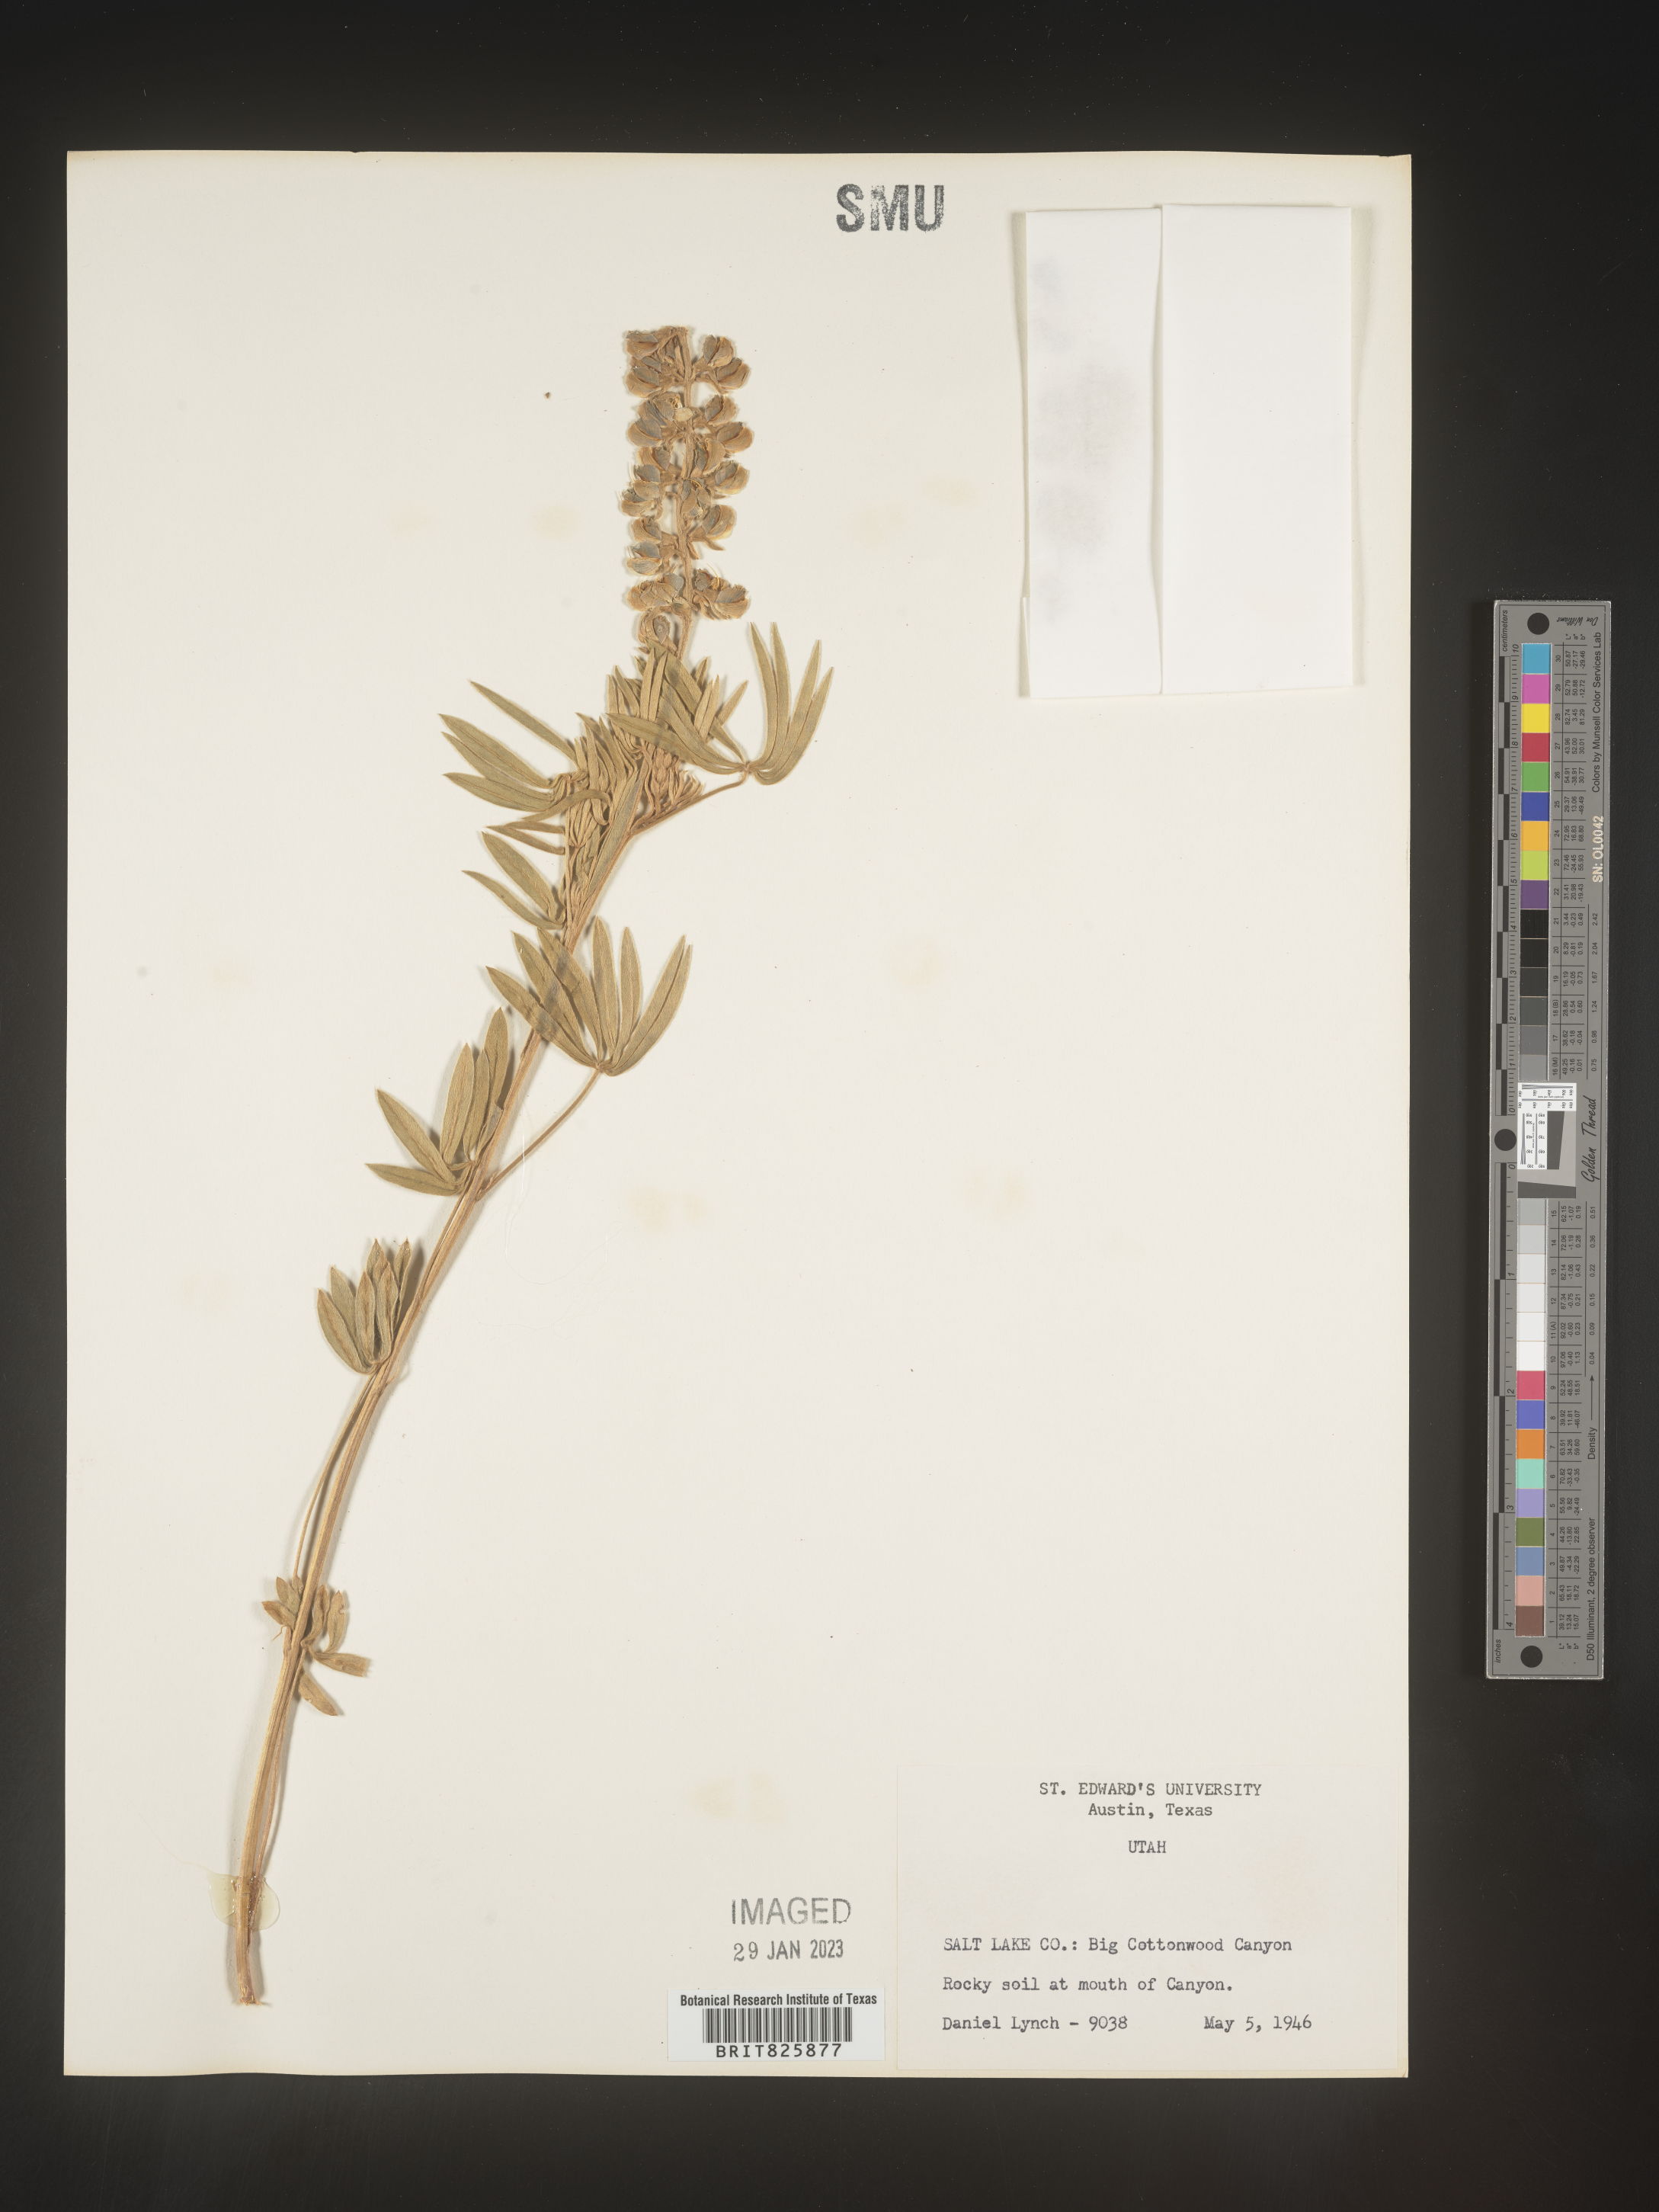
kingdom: Plantae
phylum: Tracheophyta
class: Magnoliopsida
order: Fabales
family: Fabaceae
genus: Lupinus
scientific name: Lupinus
